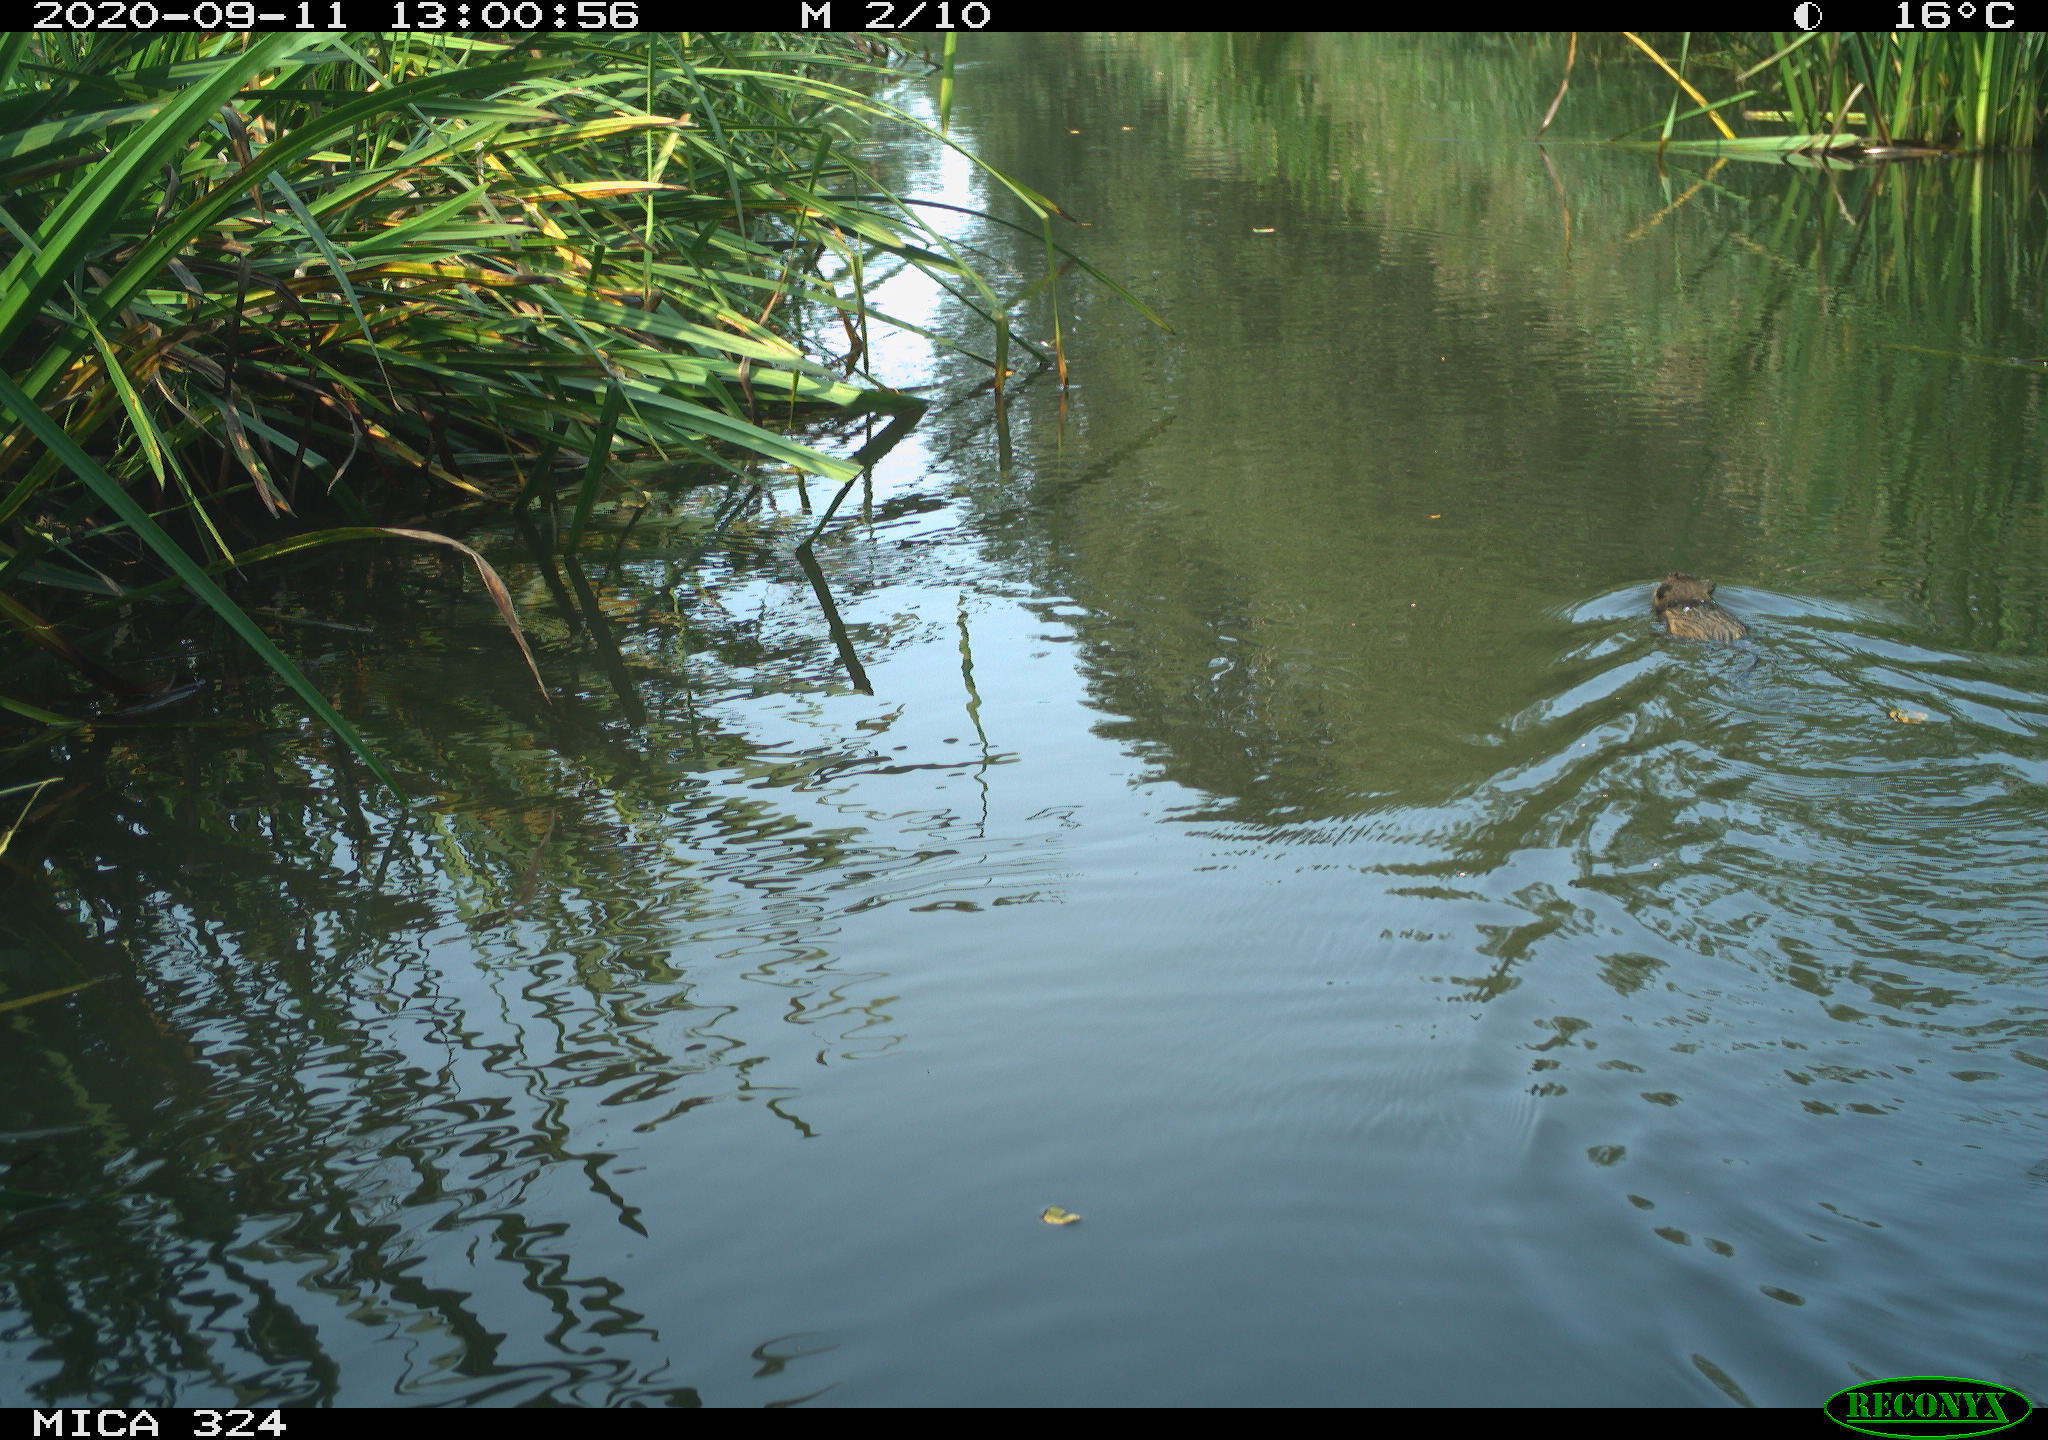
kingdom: Animalia
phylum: Chordata
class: Mammalia
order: Rodentia
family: Cricetidae
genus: Ondatra
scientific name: Ondatra zibethicus
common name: Muskrat
